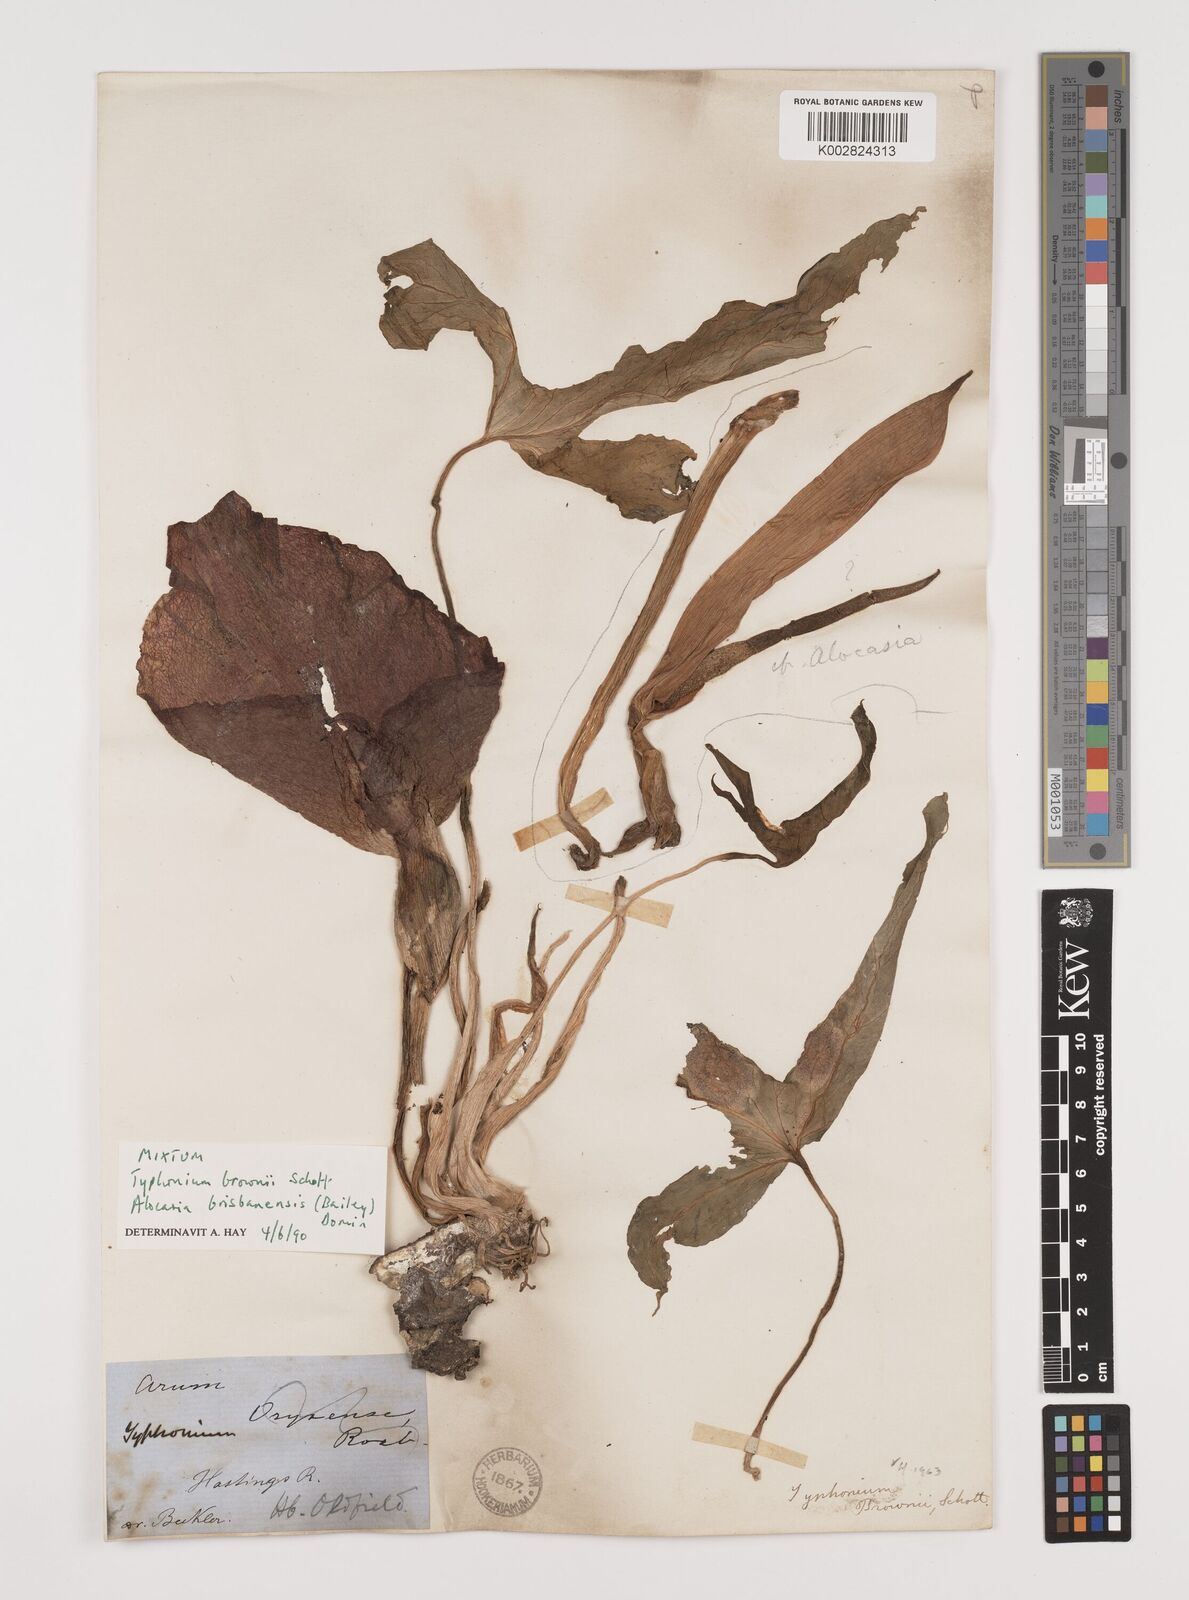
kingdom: Plantae
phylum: Tracheophyta
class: Liliopsida
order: Alismatales
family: Araceae
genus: Typhonium
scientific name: Typhonium brownii
